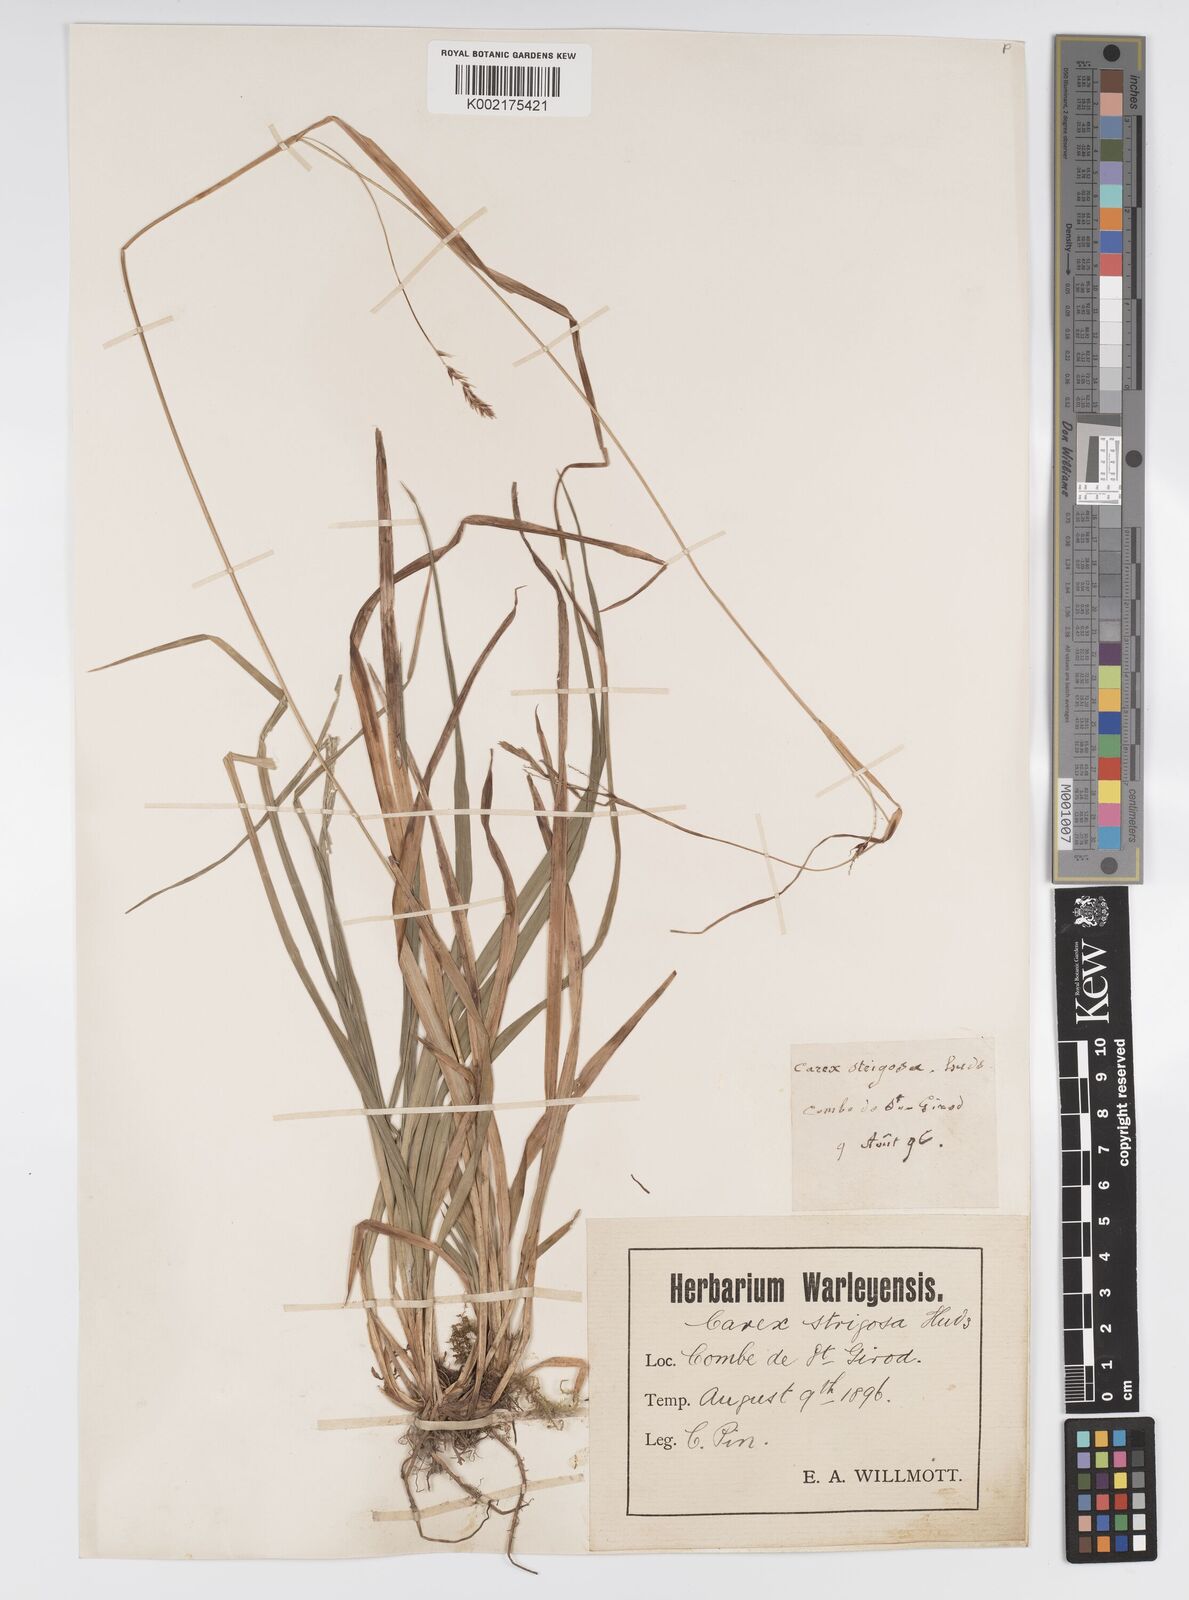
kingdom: Plantae
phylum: Tracheophyta
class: Liliopsida
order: Poales
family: Cyperaceae
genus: Carex
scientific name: Carex sylvatica
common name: Wood-sedge
